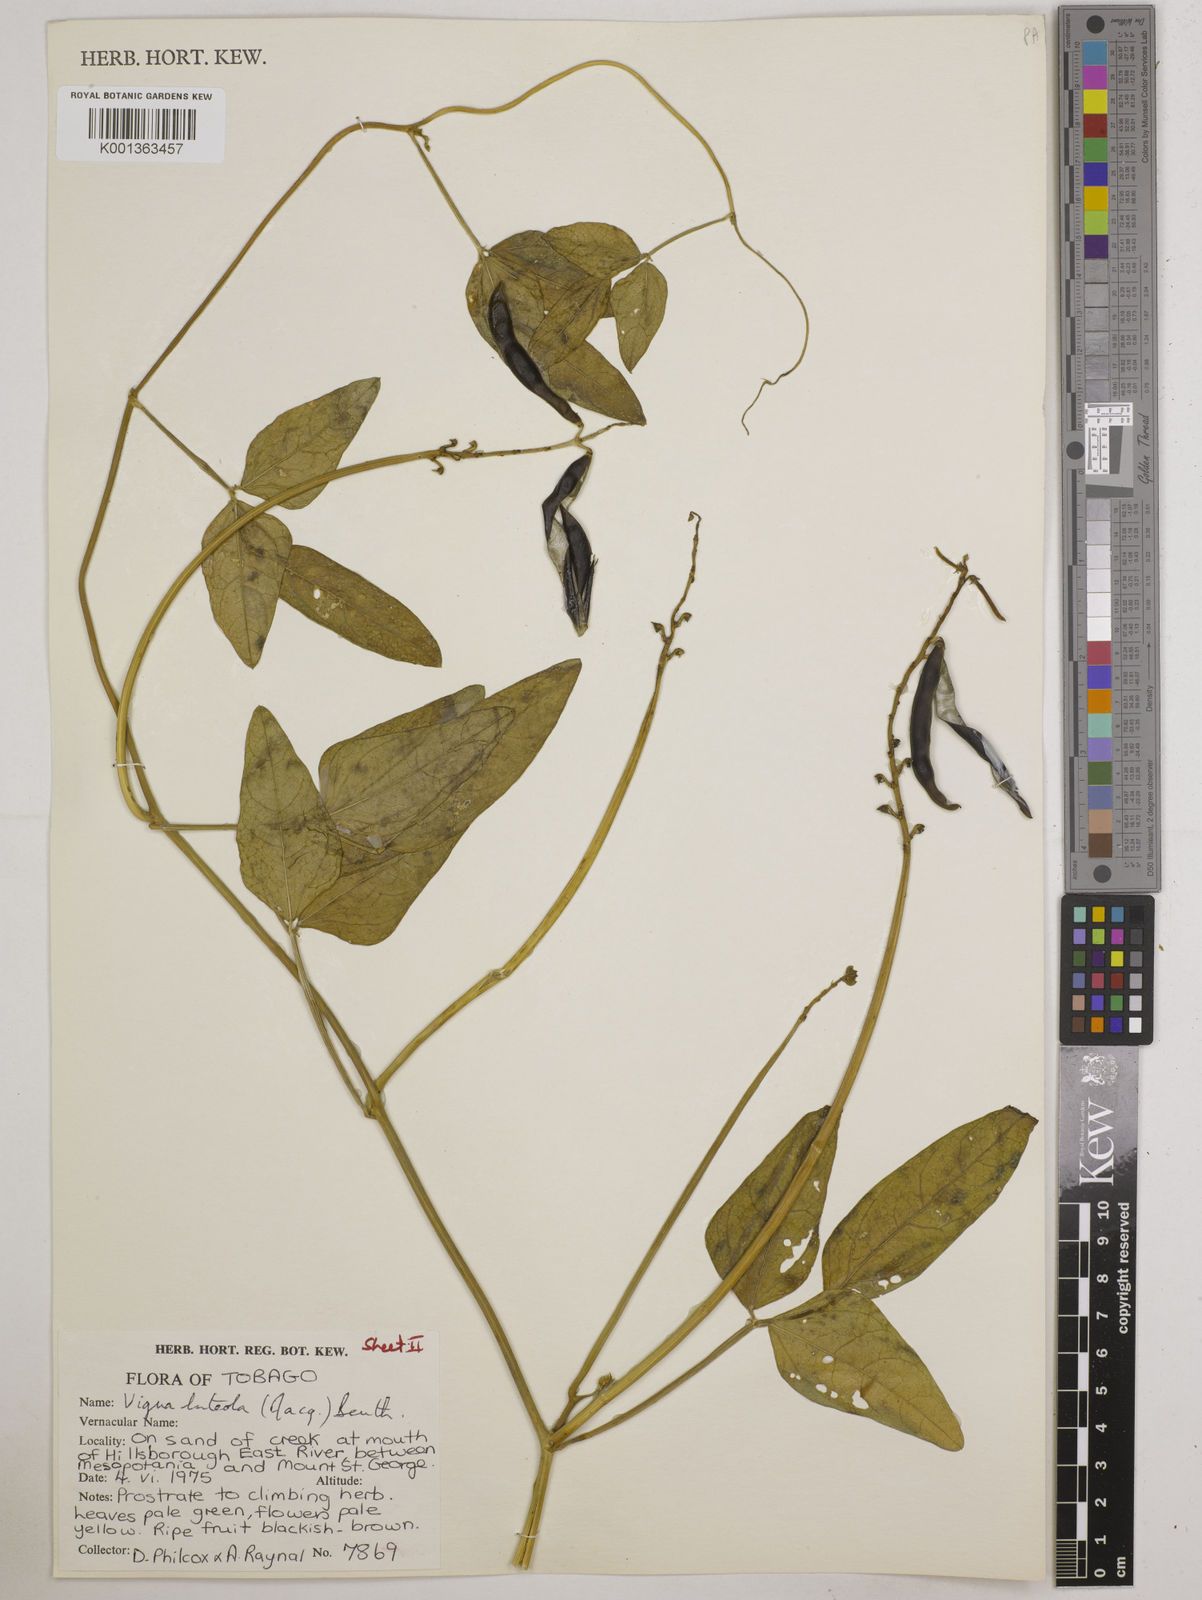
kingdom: Plantae
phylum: Tracheophyta
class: Magnoliopsida
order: Fabales
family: Fabaceae
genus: Vigna
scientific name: Vigna luteola
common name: Hairypod cowpea
